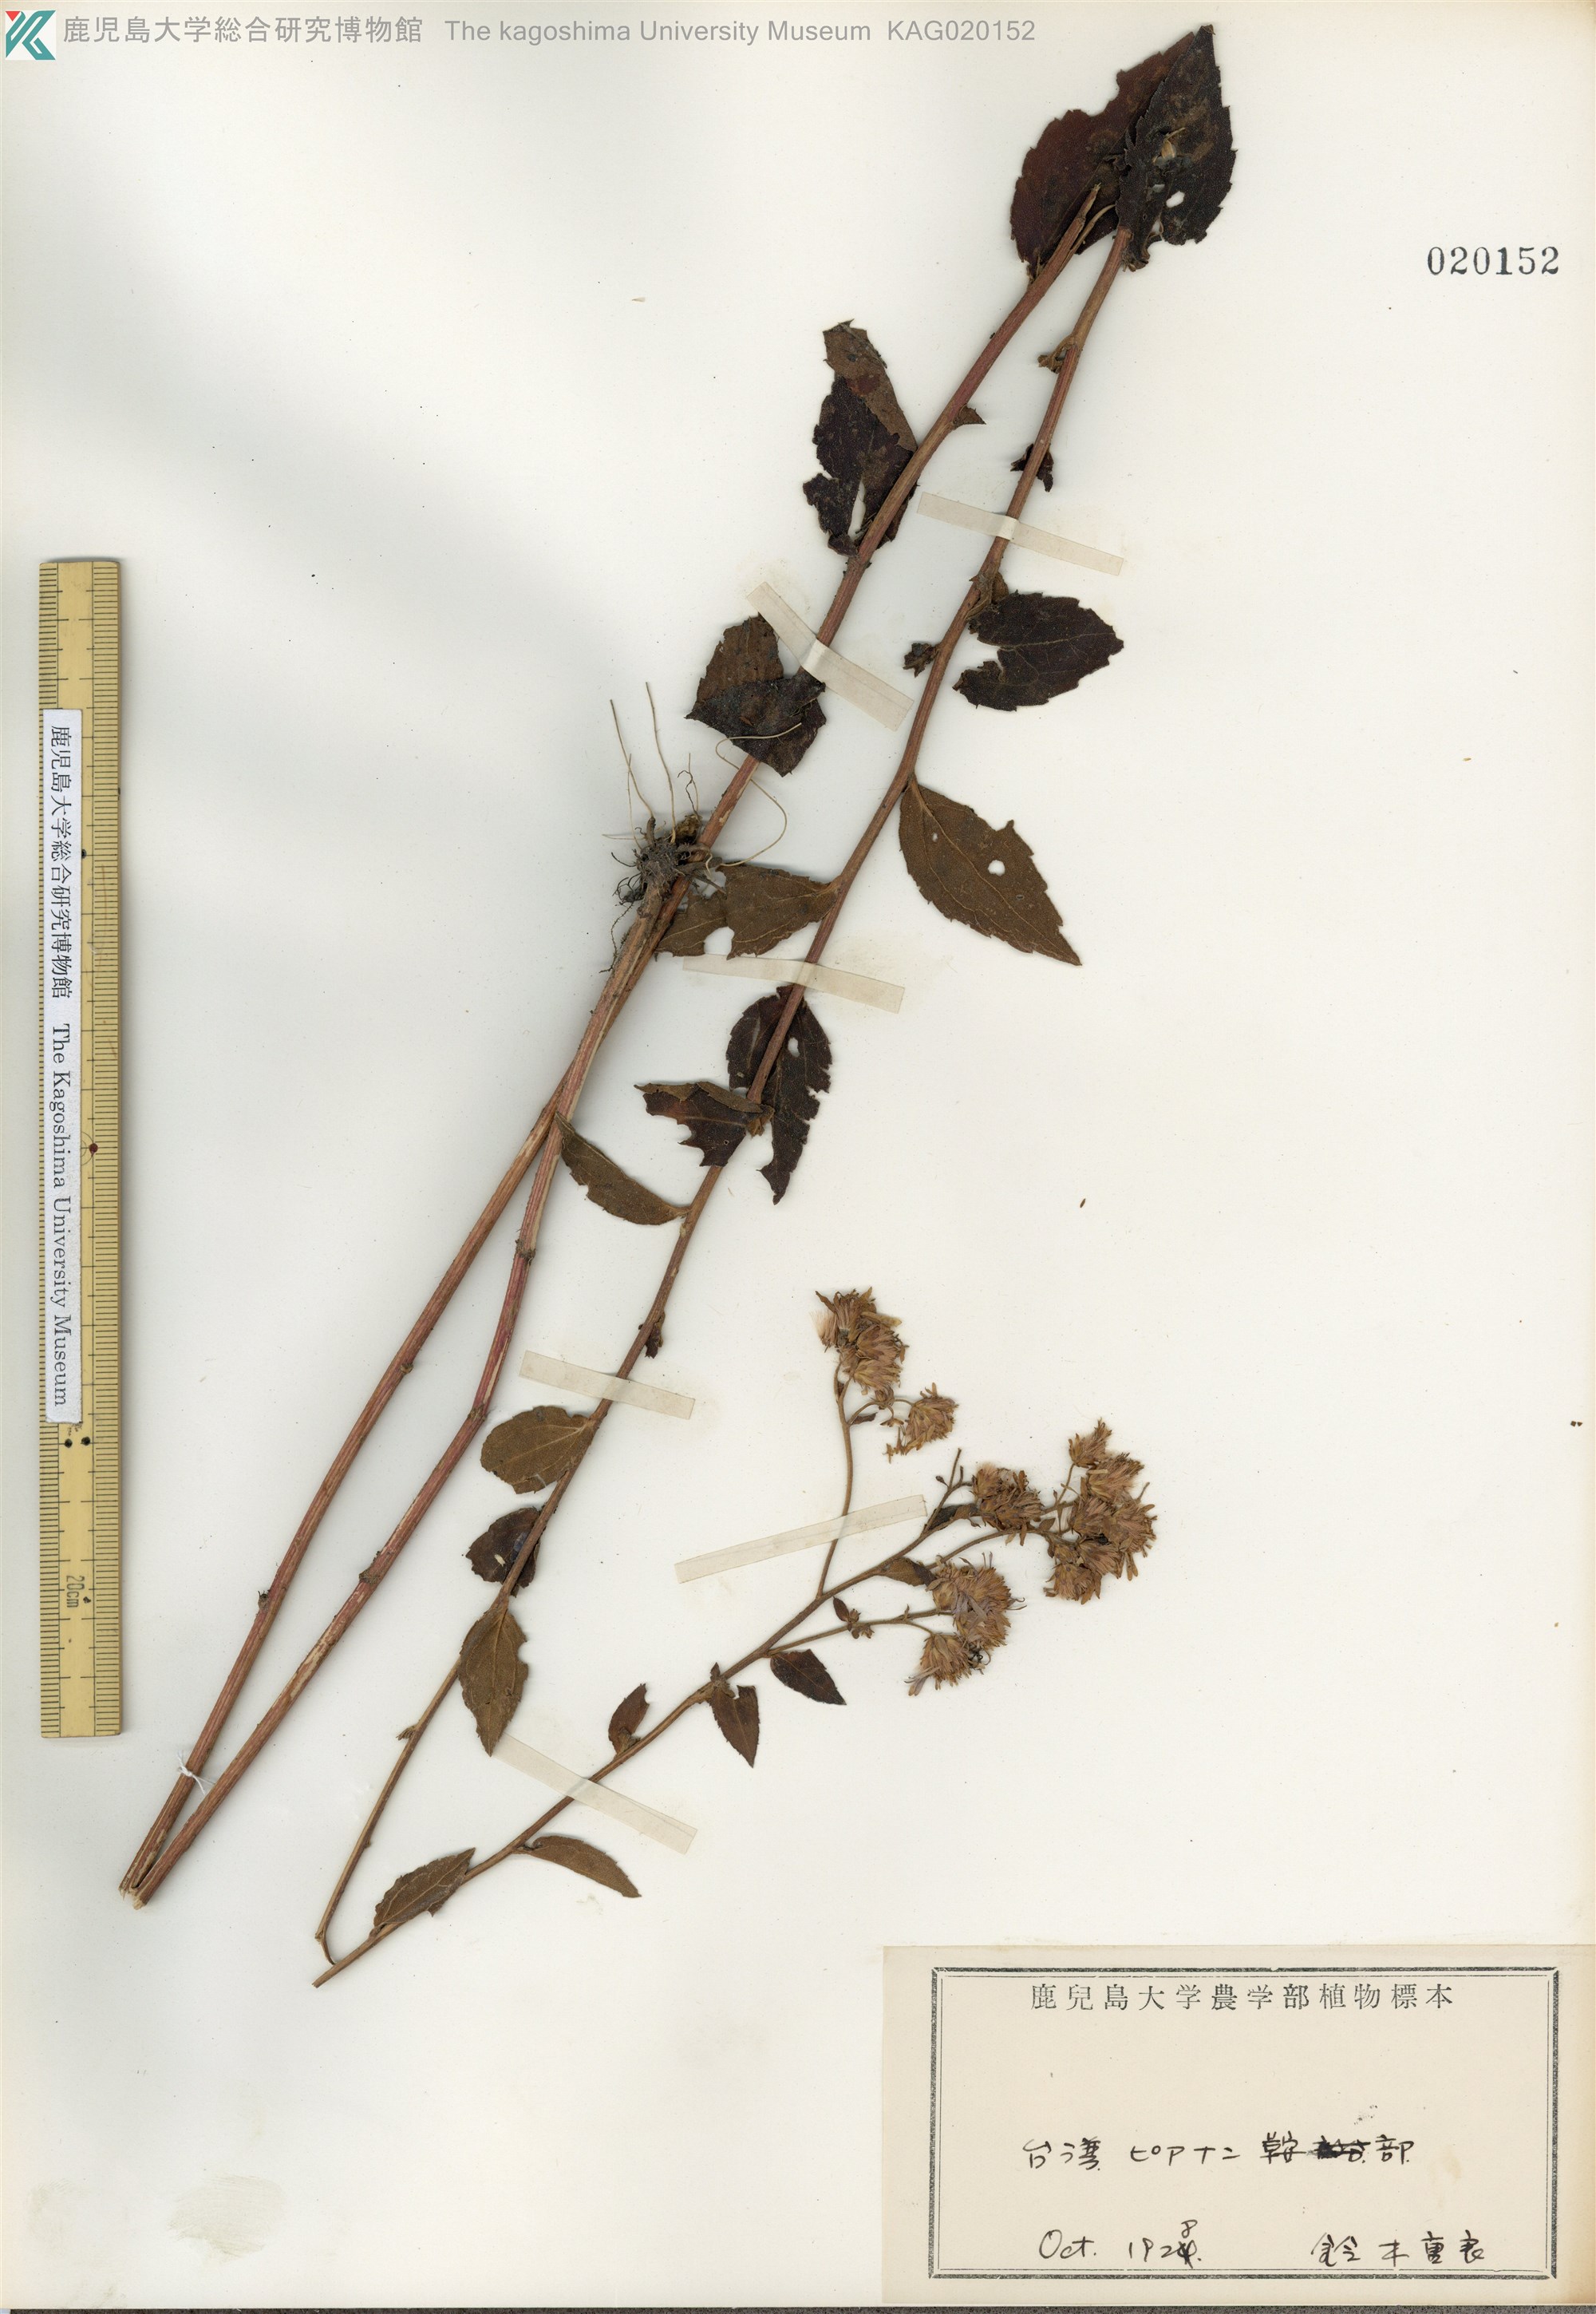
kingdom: Plantae
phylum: Tracheophyta
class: Magnoliopsida
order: Asterales
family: Asteraceae
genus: Aster
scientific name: Aster ageratoides
